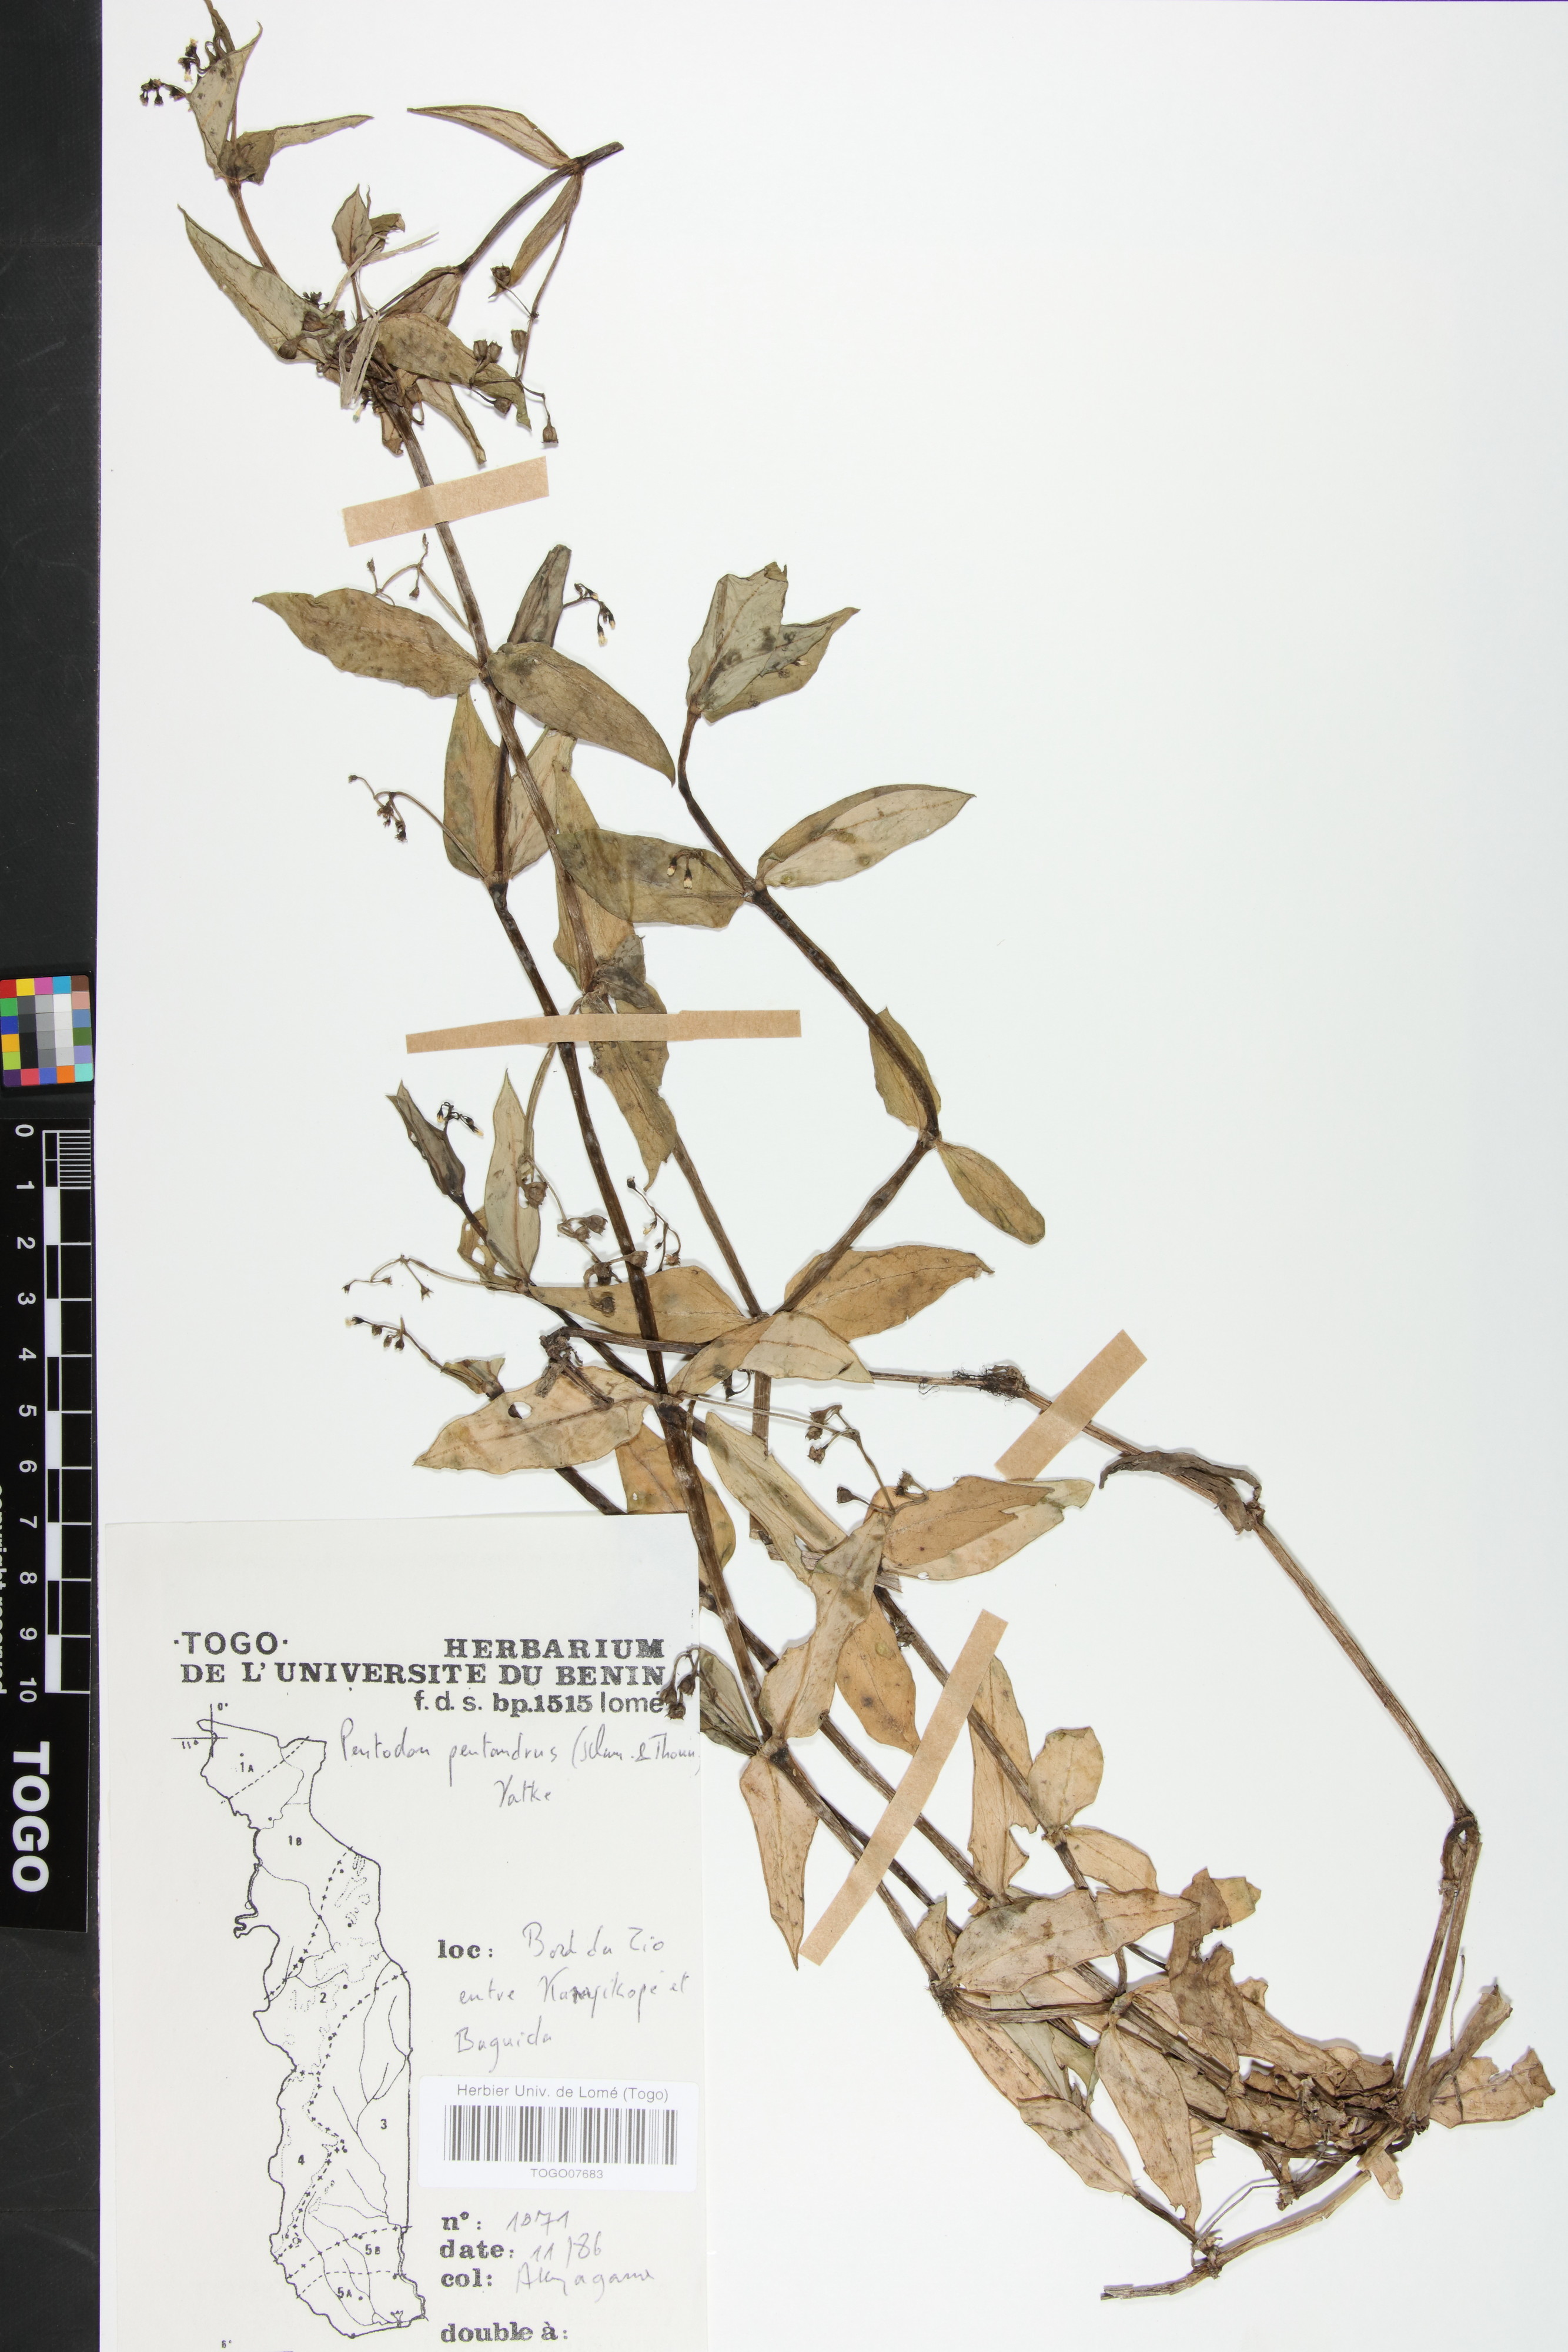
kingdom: Plantae
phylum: Tracheophyta
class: Magnoliopsida
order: Gentianales
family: Rubiaceae
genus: Pentodon
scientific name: Pentodon pentandrus
